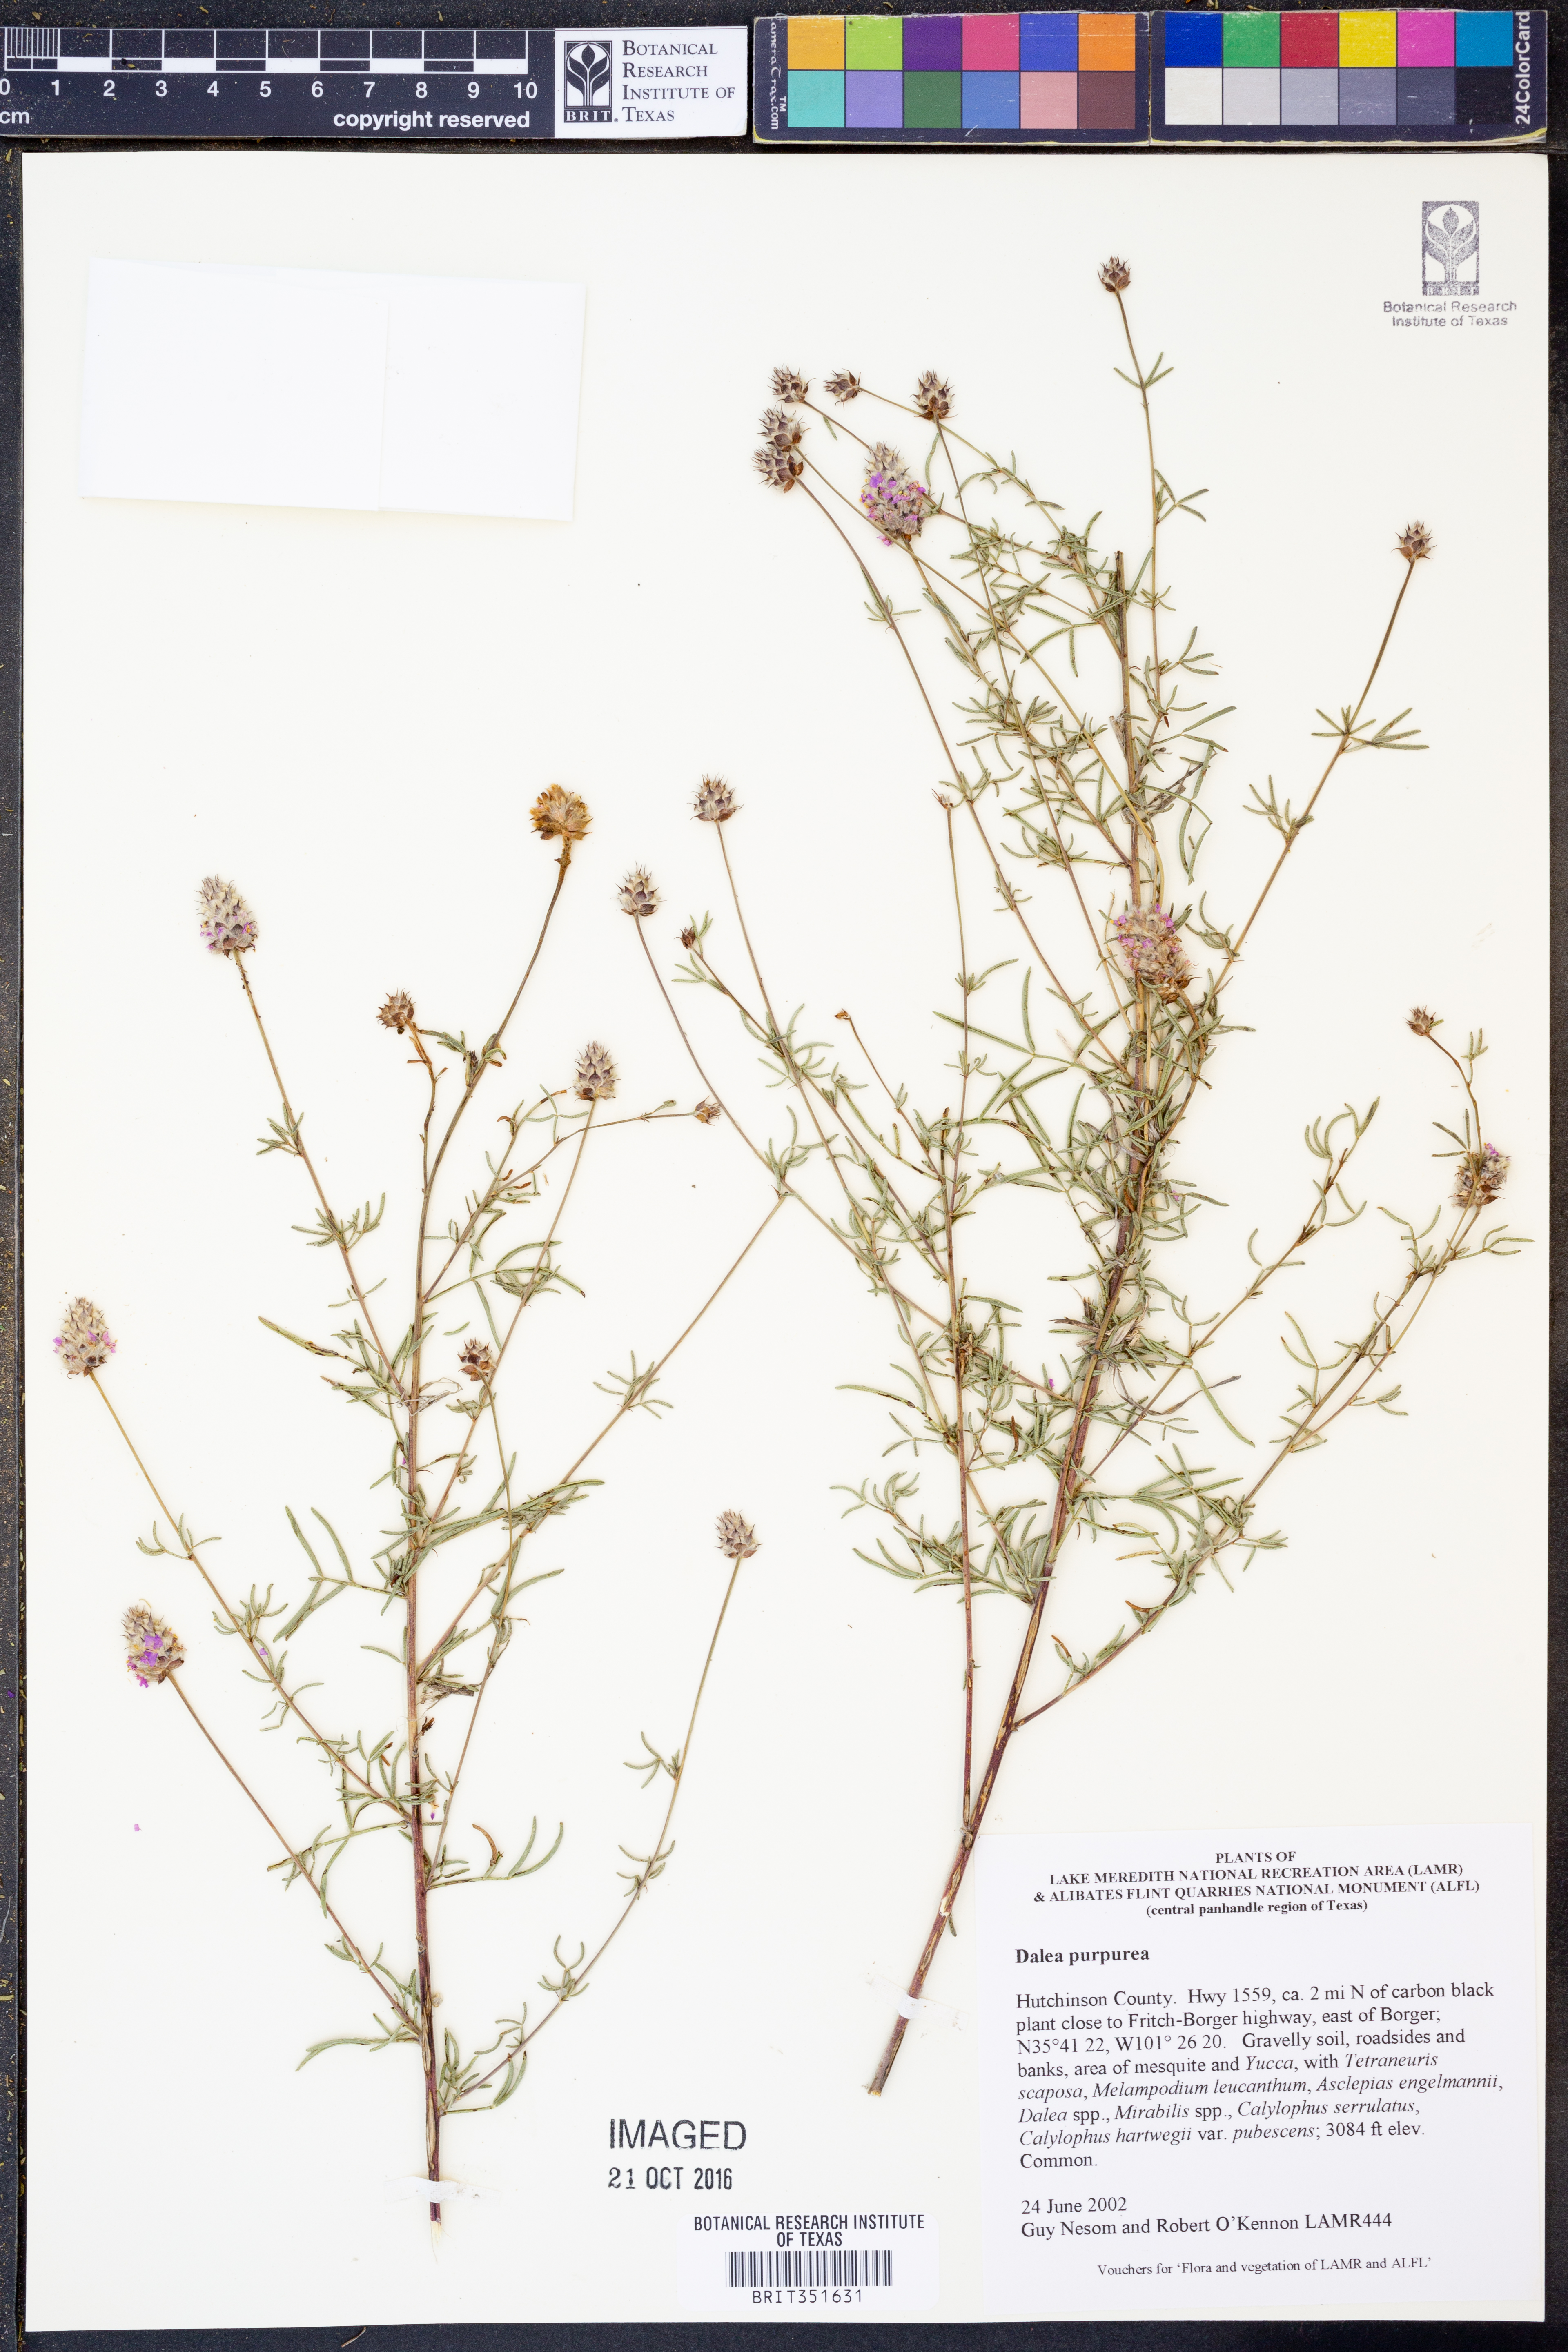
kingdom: Plantae
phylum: Tracheophyta
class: Magnoliopsida
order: Fabales
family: Fabaceae
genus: Dalea
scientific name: Dalea purpurea
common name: Purple prairie-clover
